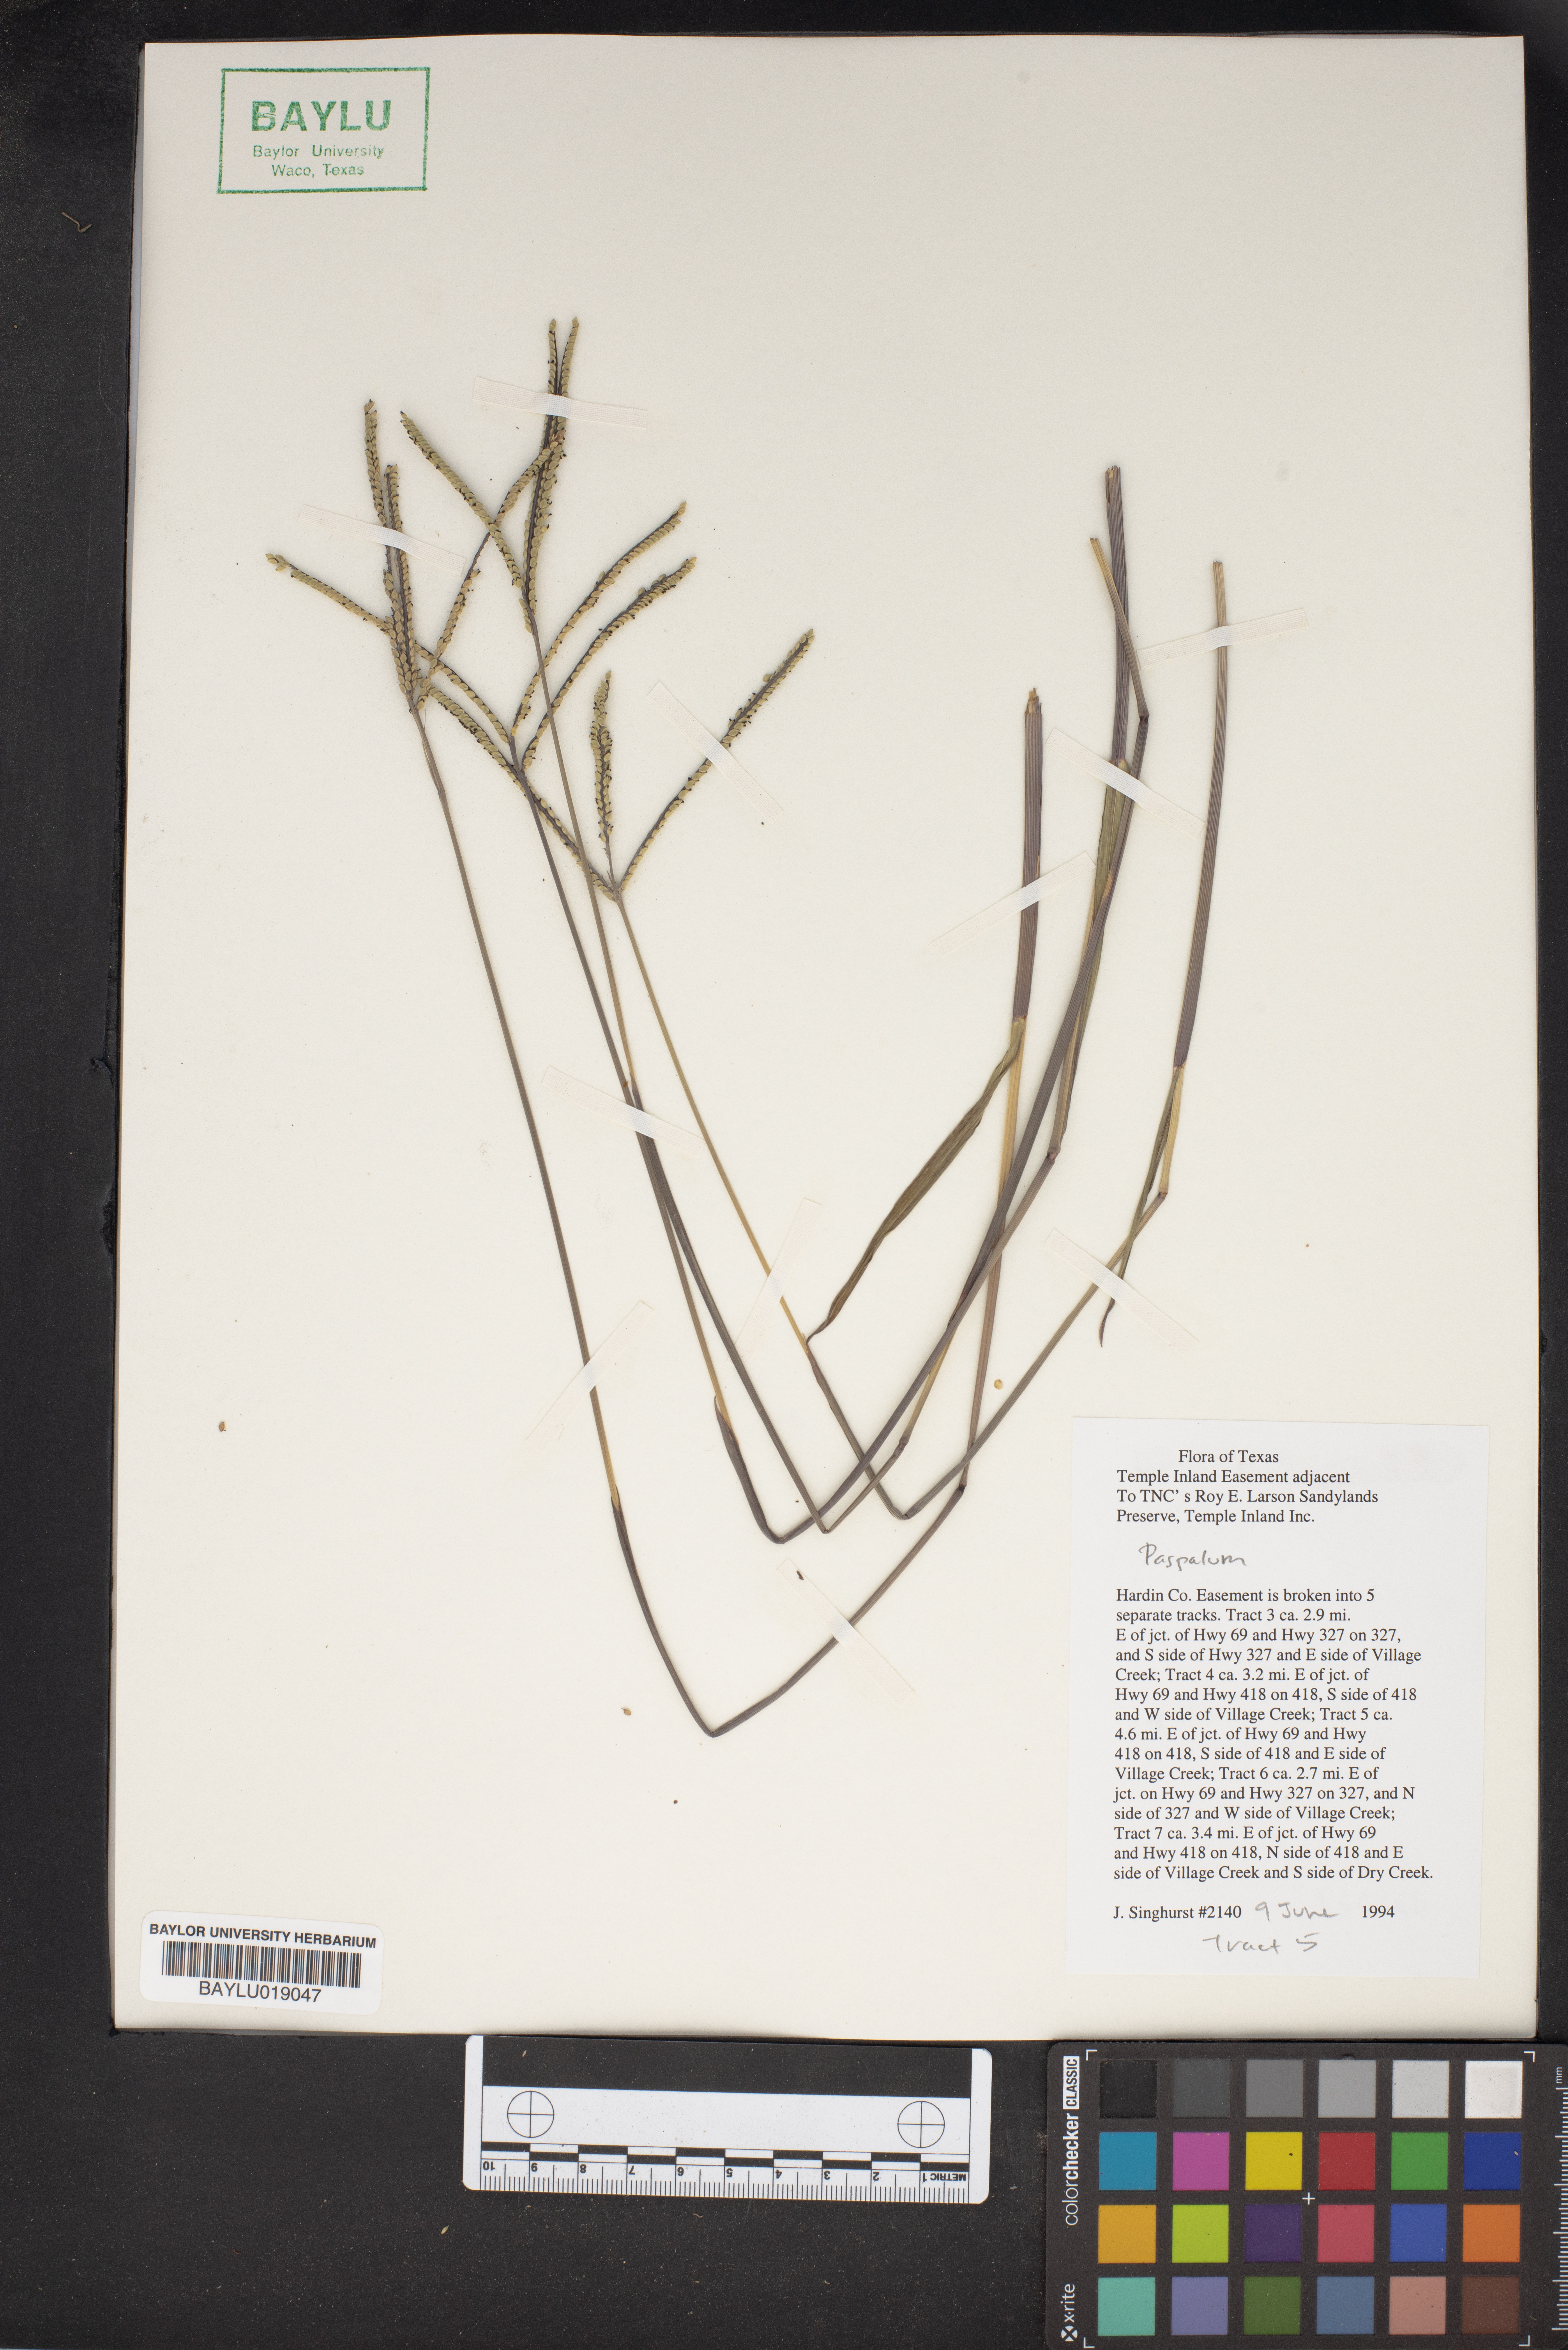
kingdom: Plantae
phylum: Tracheophyta
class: Liliopsida
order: Poales
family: Poaceae
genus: Paspalum
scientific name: Paspalum
